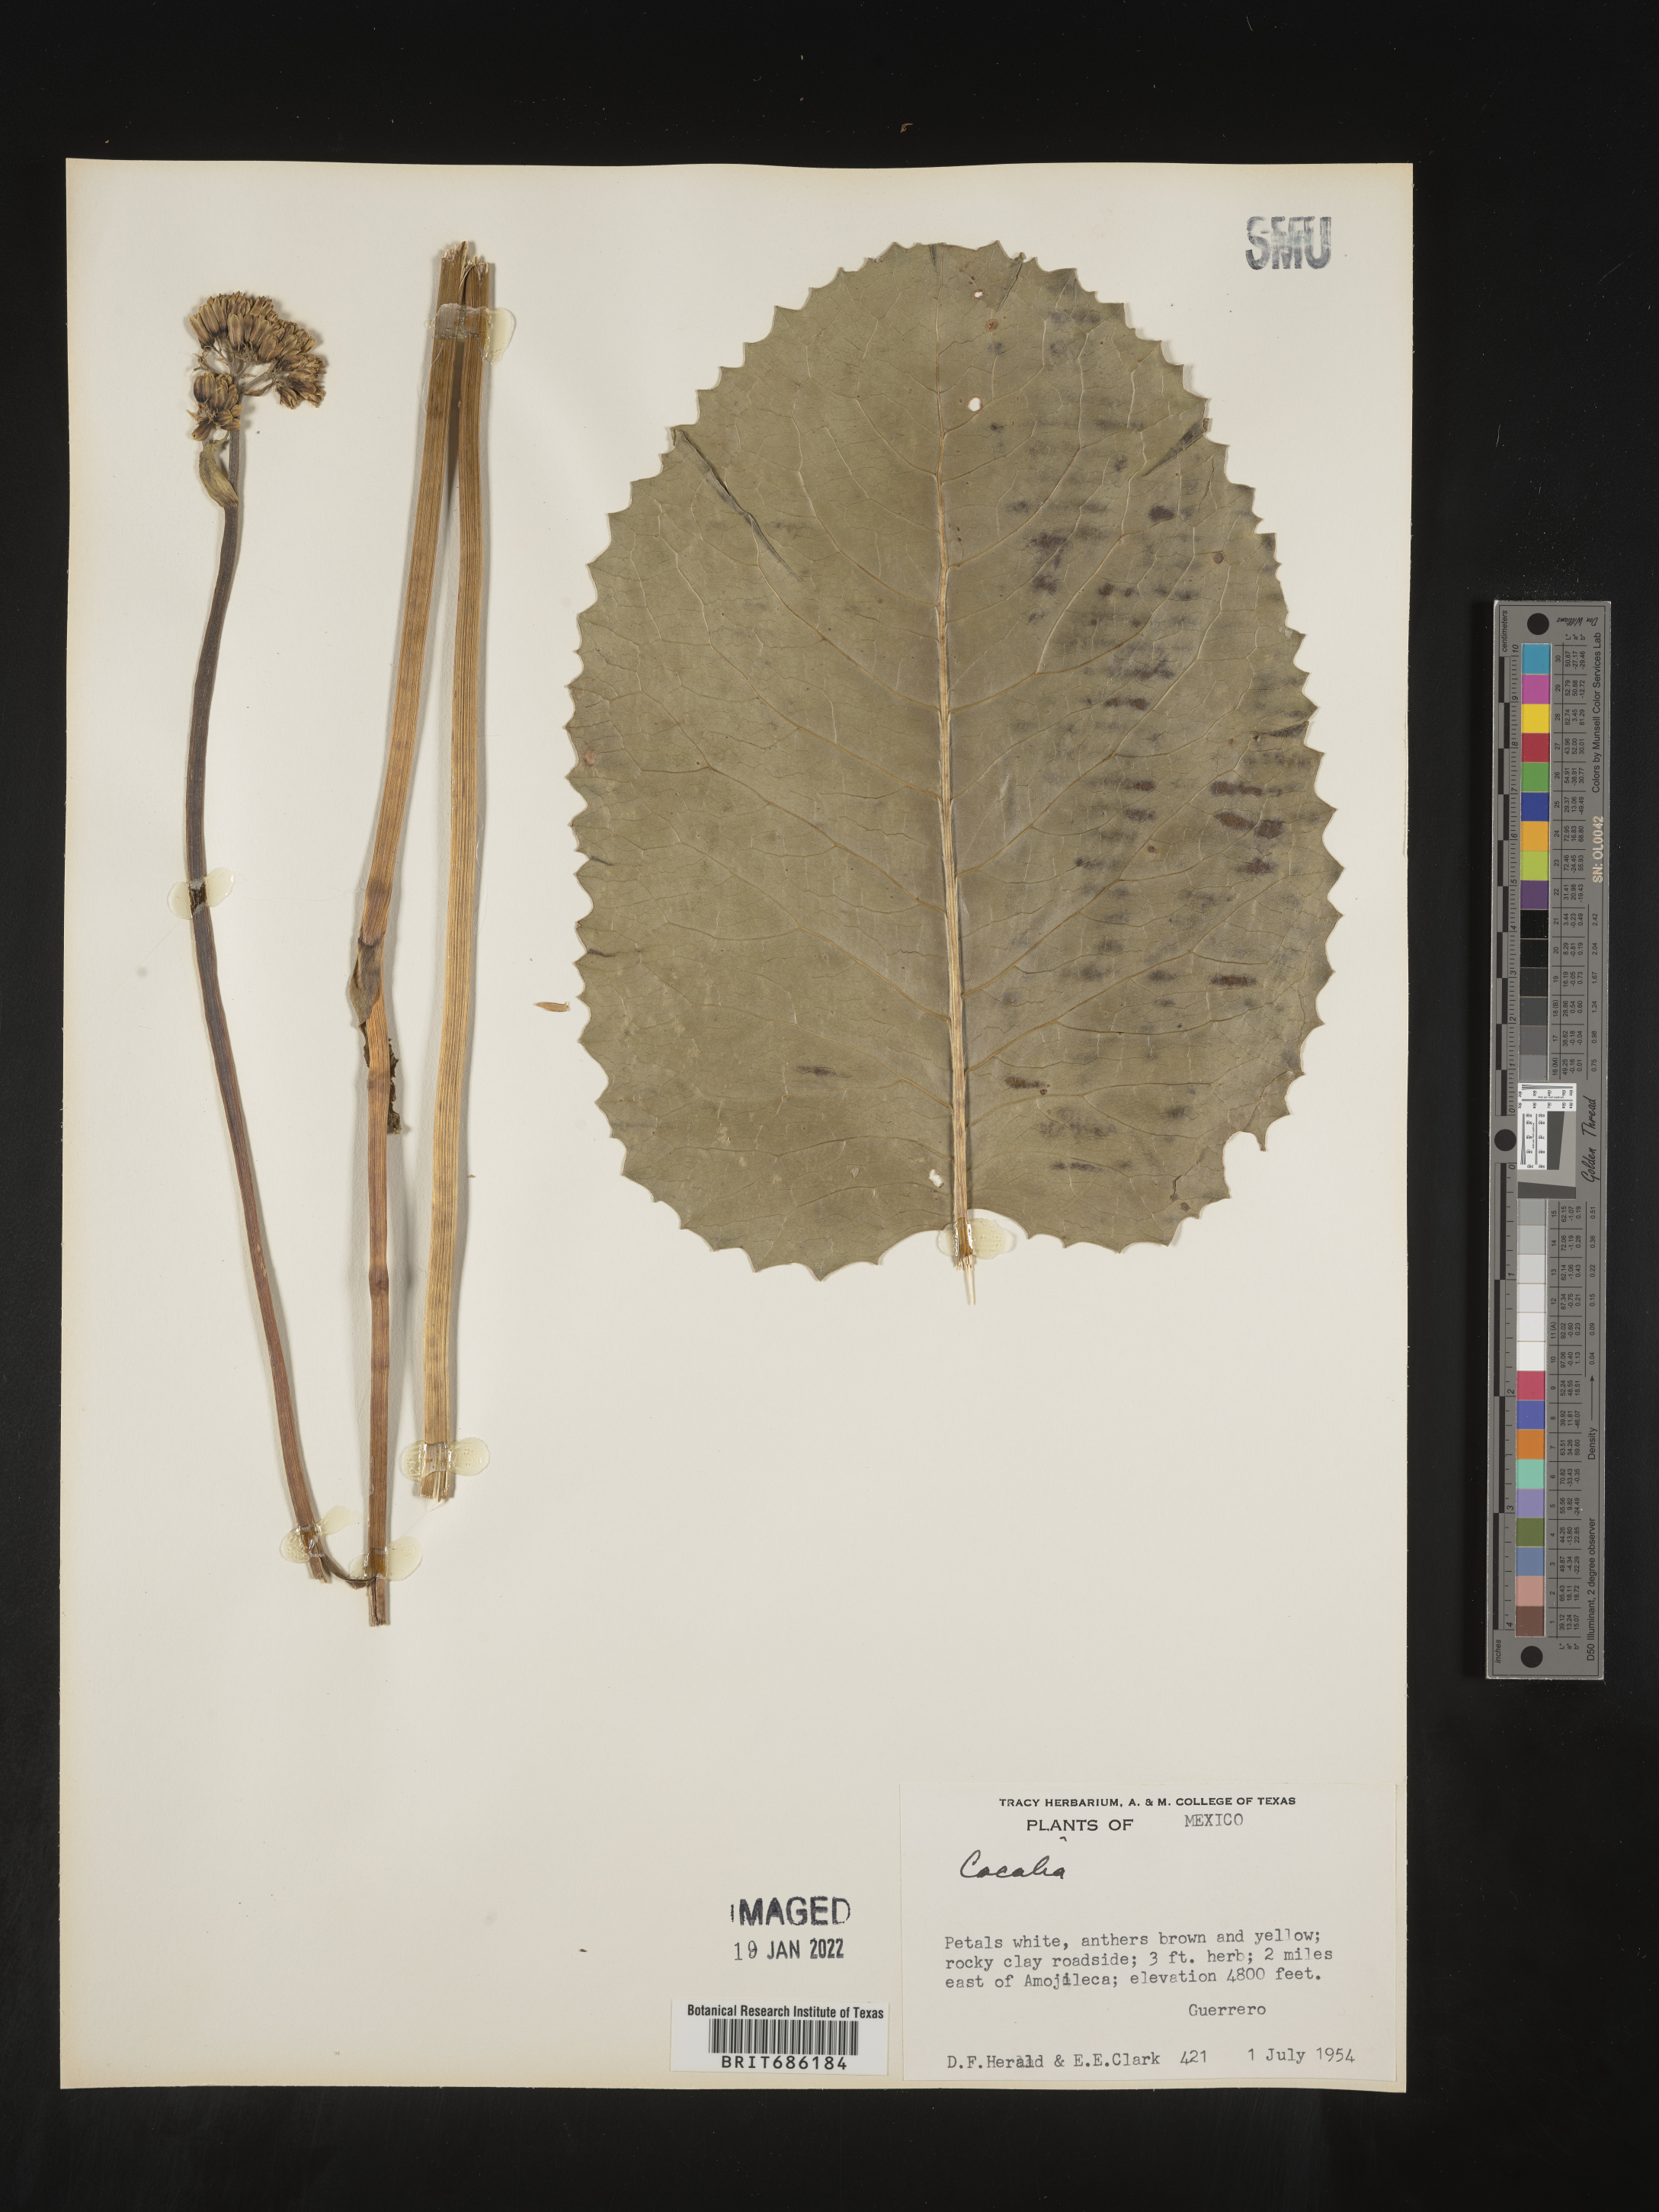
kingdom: Plantae
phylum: Tracheophyta
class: Magnoliopsida
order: Asterales
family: Asteraceae
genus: Cacalia
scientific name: Cacalia
